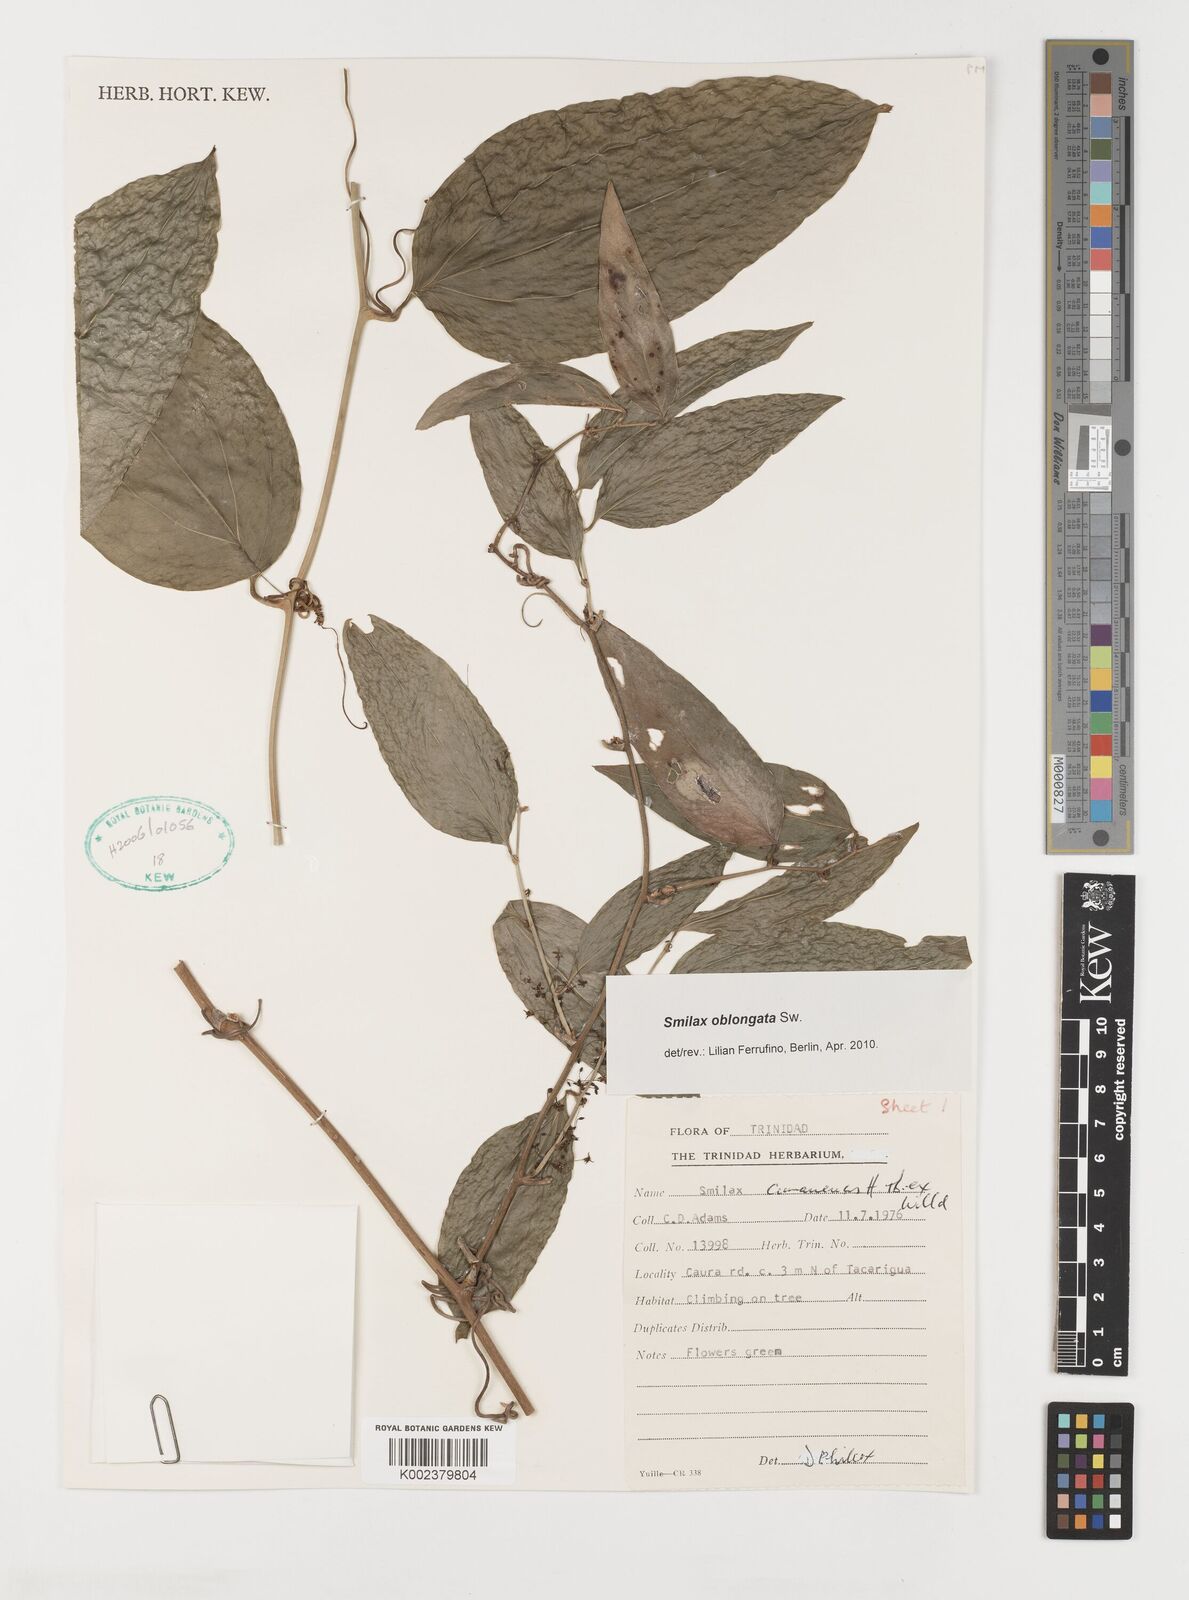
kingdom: Plantae
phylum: Tracheophyta
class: Liliopsida
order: Liliales
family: Smilacaceae
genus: Smilax
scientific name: Smilax oblongata
